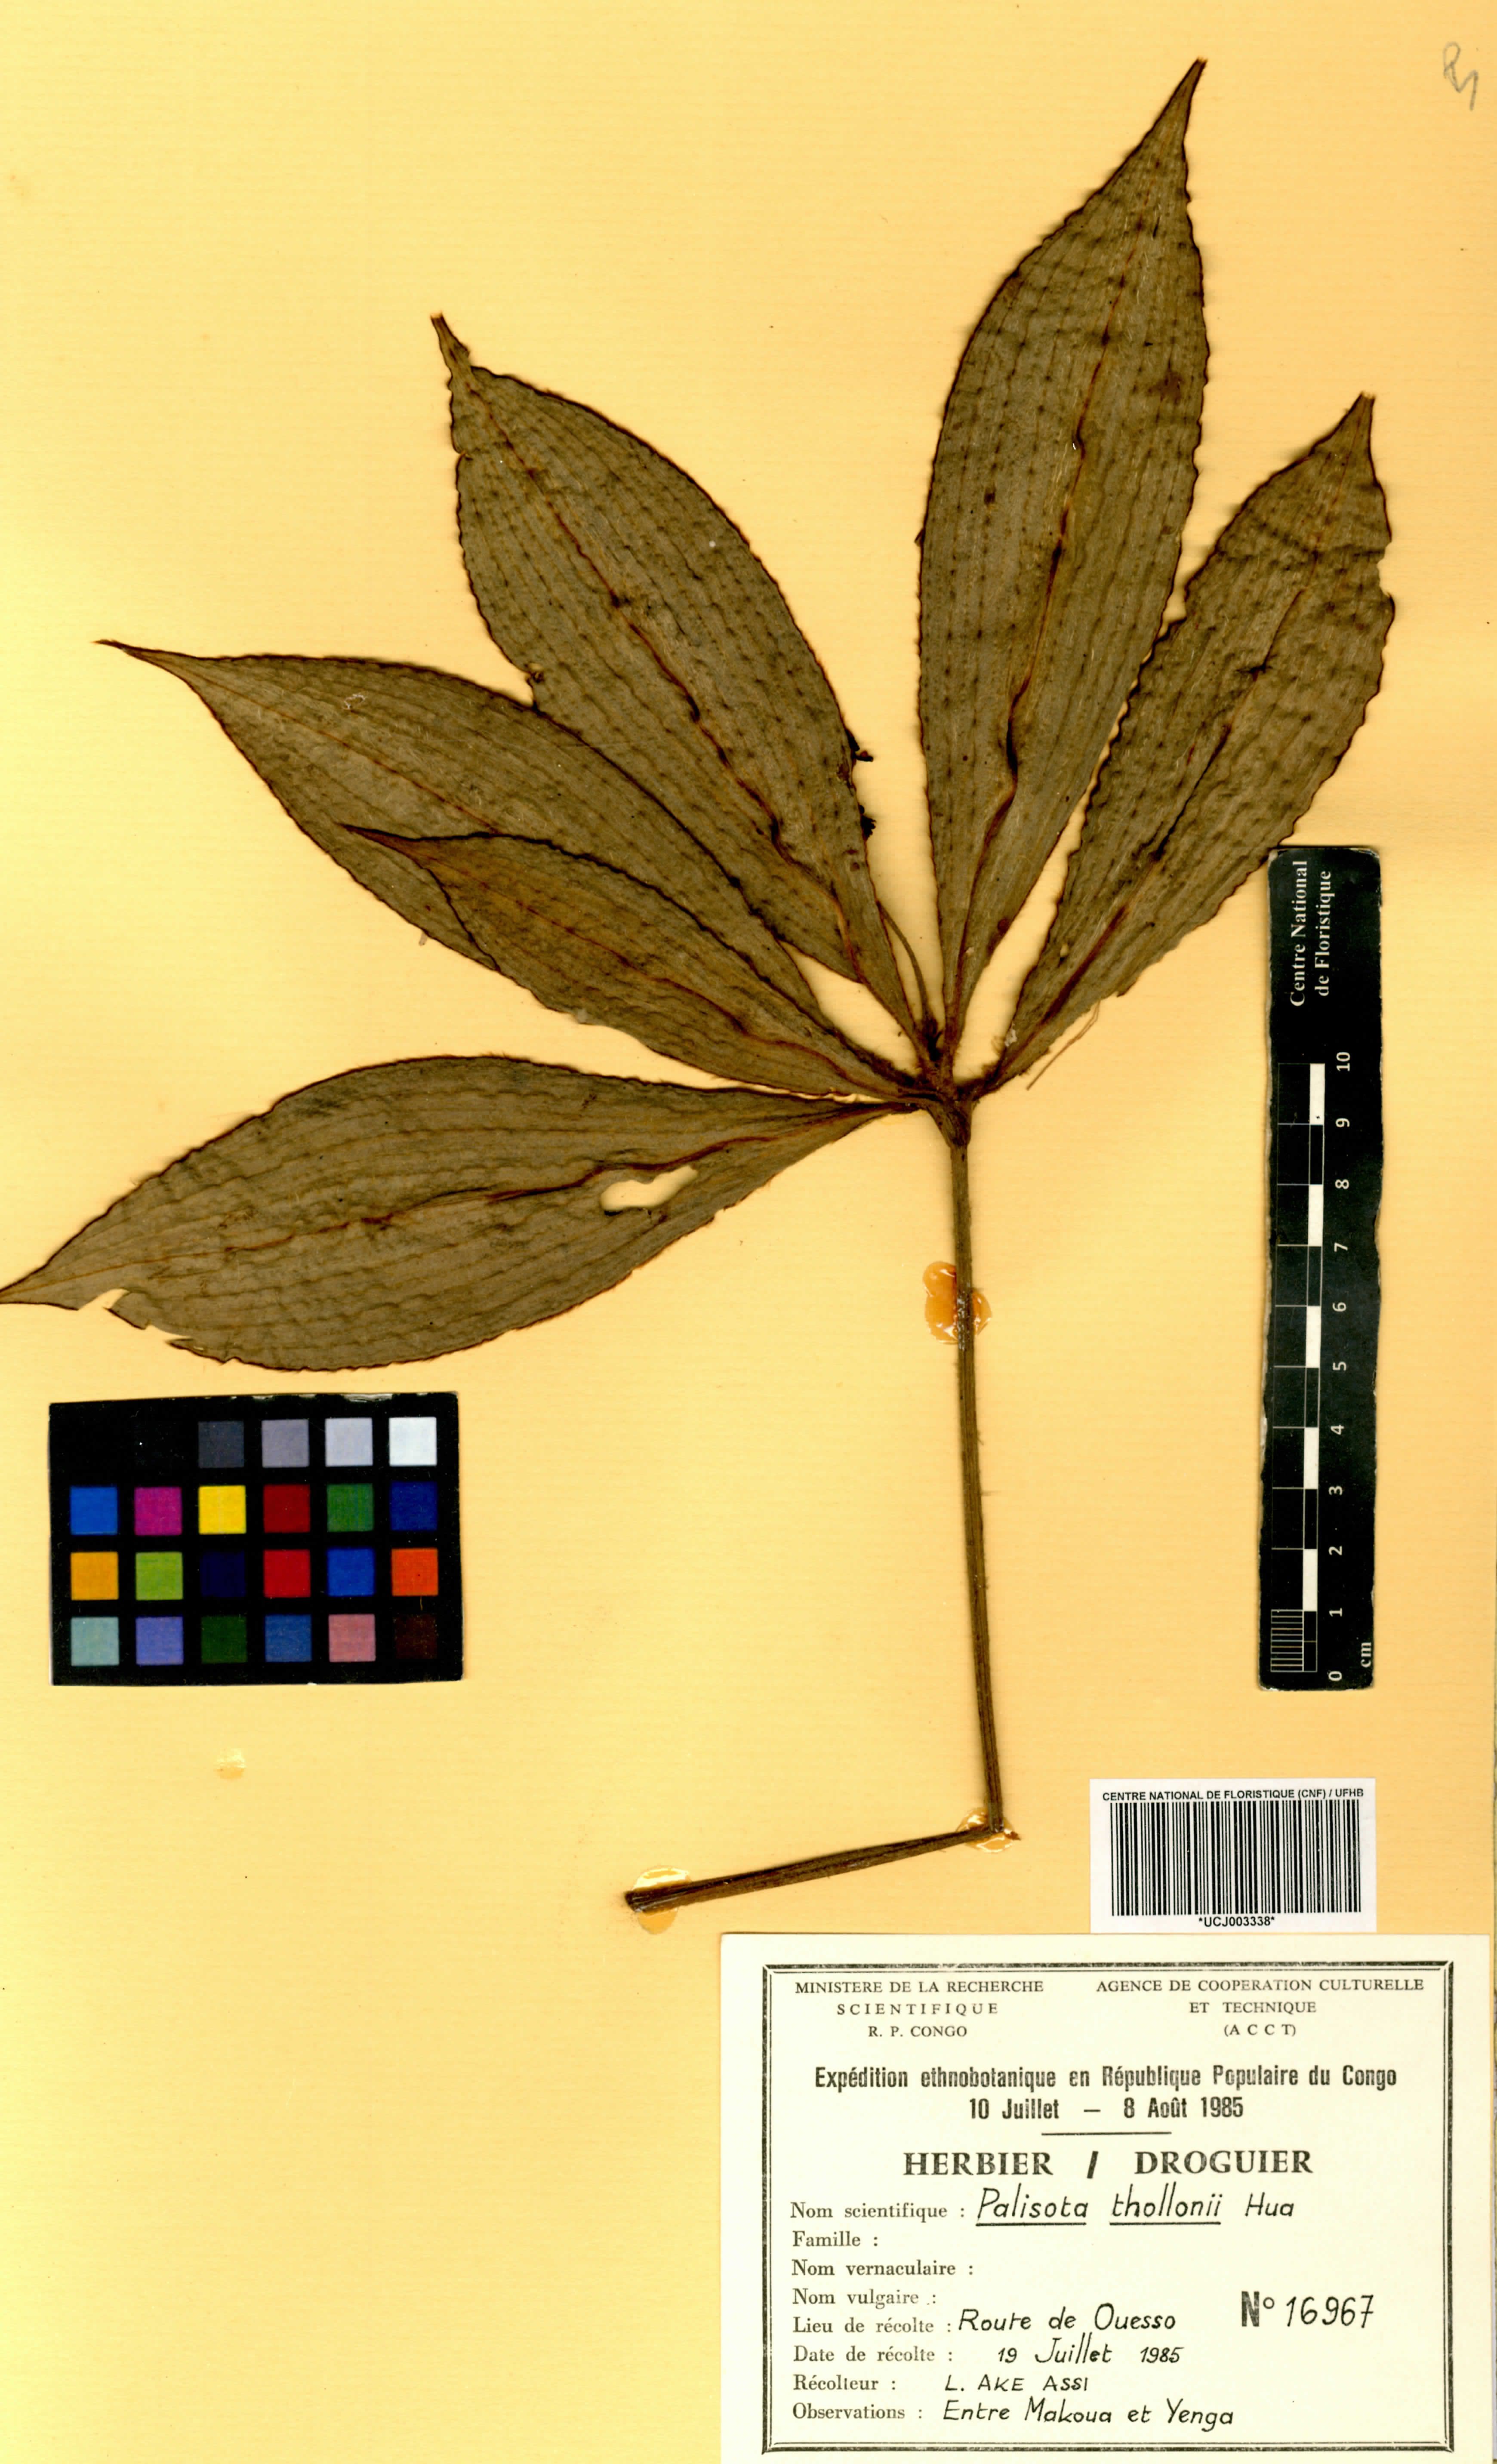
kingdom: Plantae
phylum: Tracheophyta
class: Liliopsida
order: Commelinales
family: Commelinaceae
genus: Palisota
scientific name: Palisota thollonii
